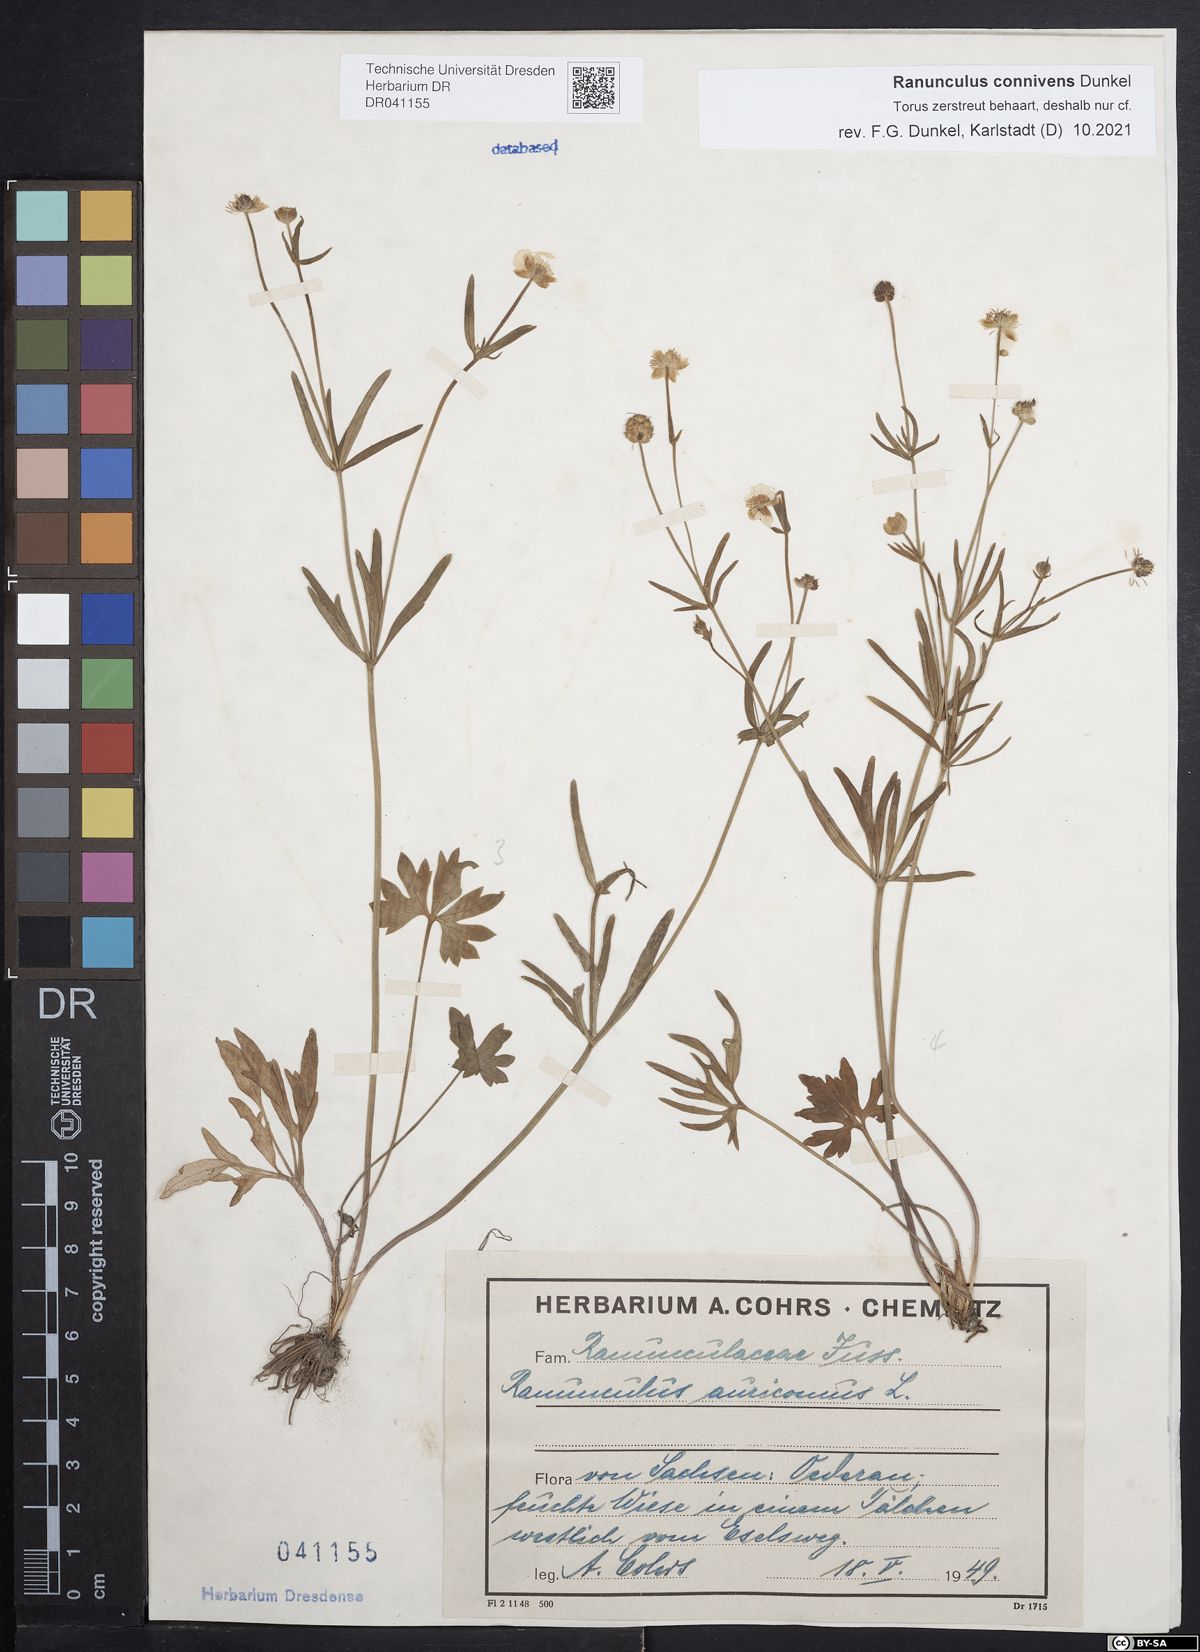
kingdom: Plantae
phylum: Tracheophyta
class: Magnoliopsida
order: Ranunculales
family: Ranunculaceae
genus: Ranunculus
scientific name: Ranunculus connivens
